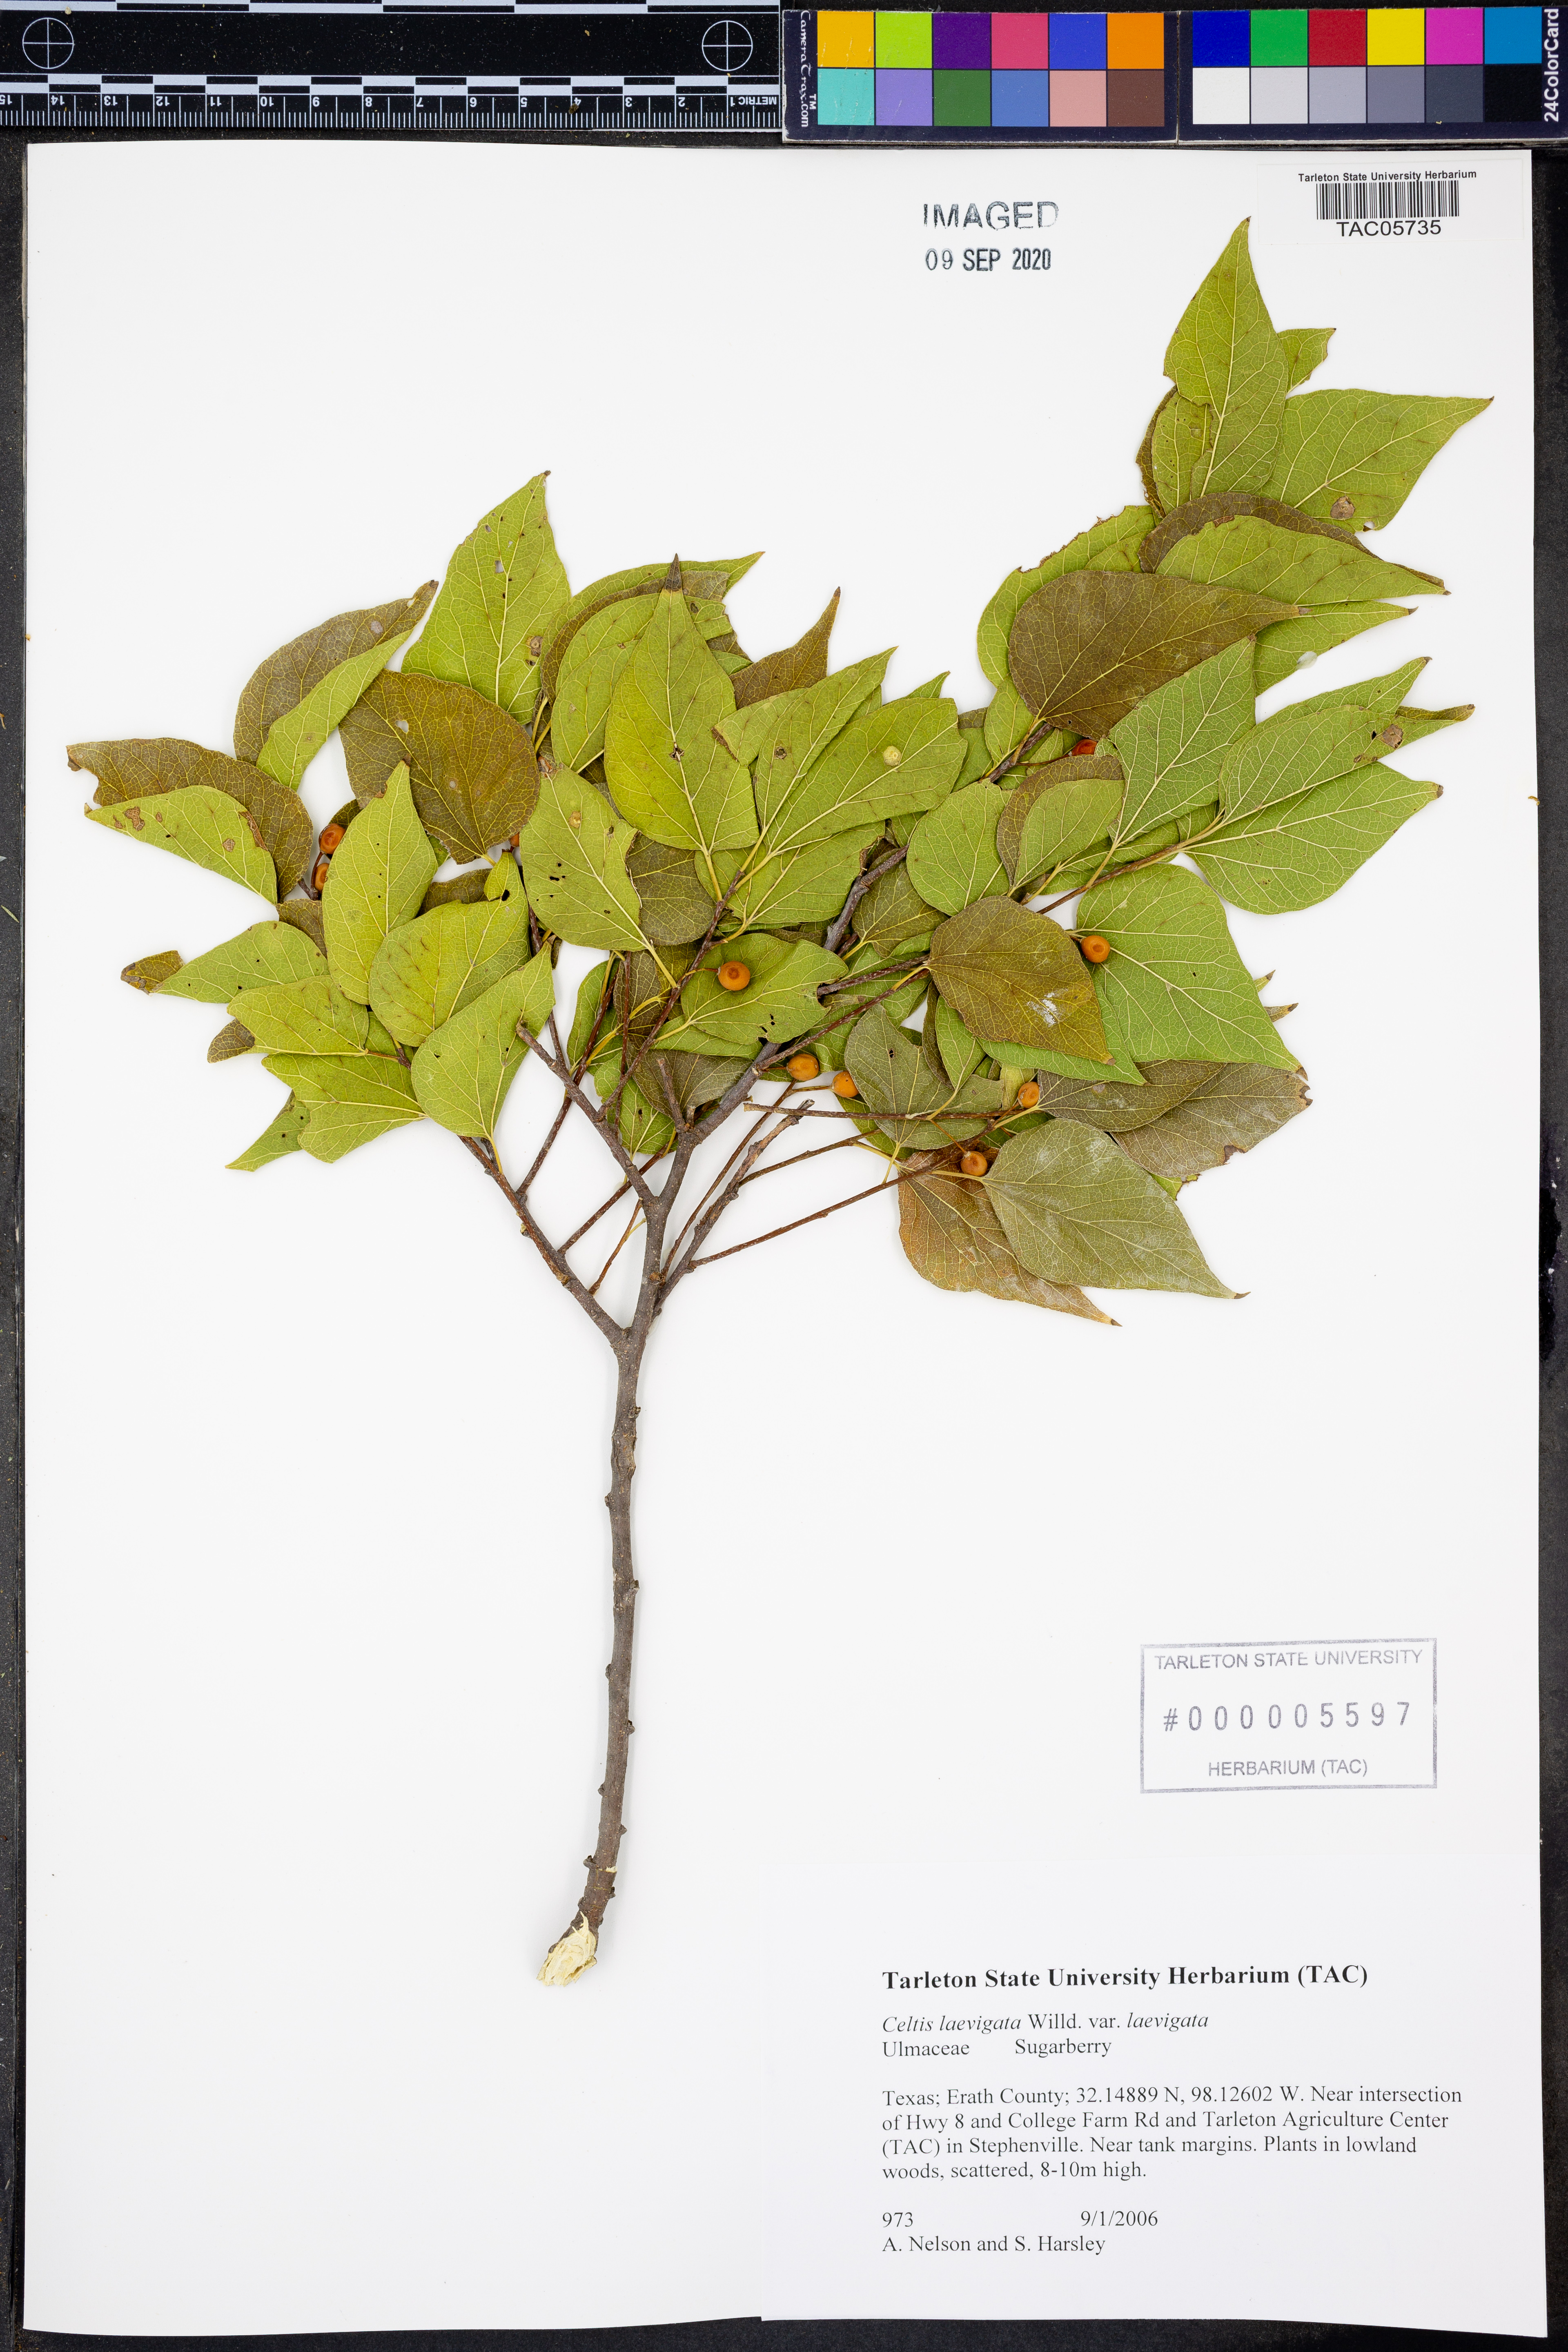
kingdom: Plantae
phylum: Tracheophyta
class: Magnoliopsida
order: Rosales
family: Cannabaceae
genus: Celtis
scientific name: Celtis laevigata
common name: Sugarberry
